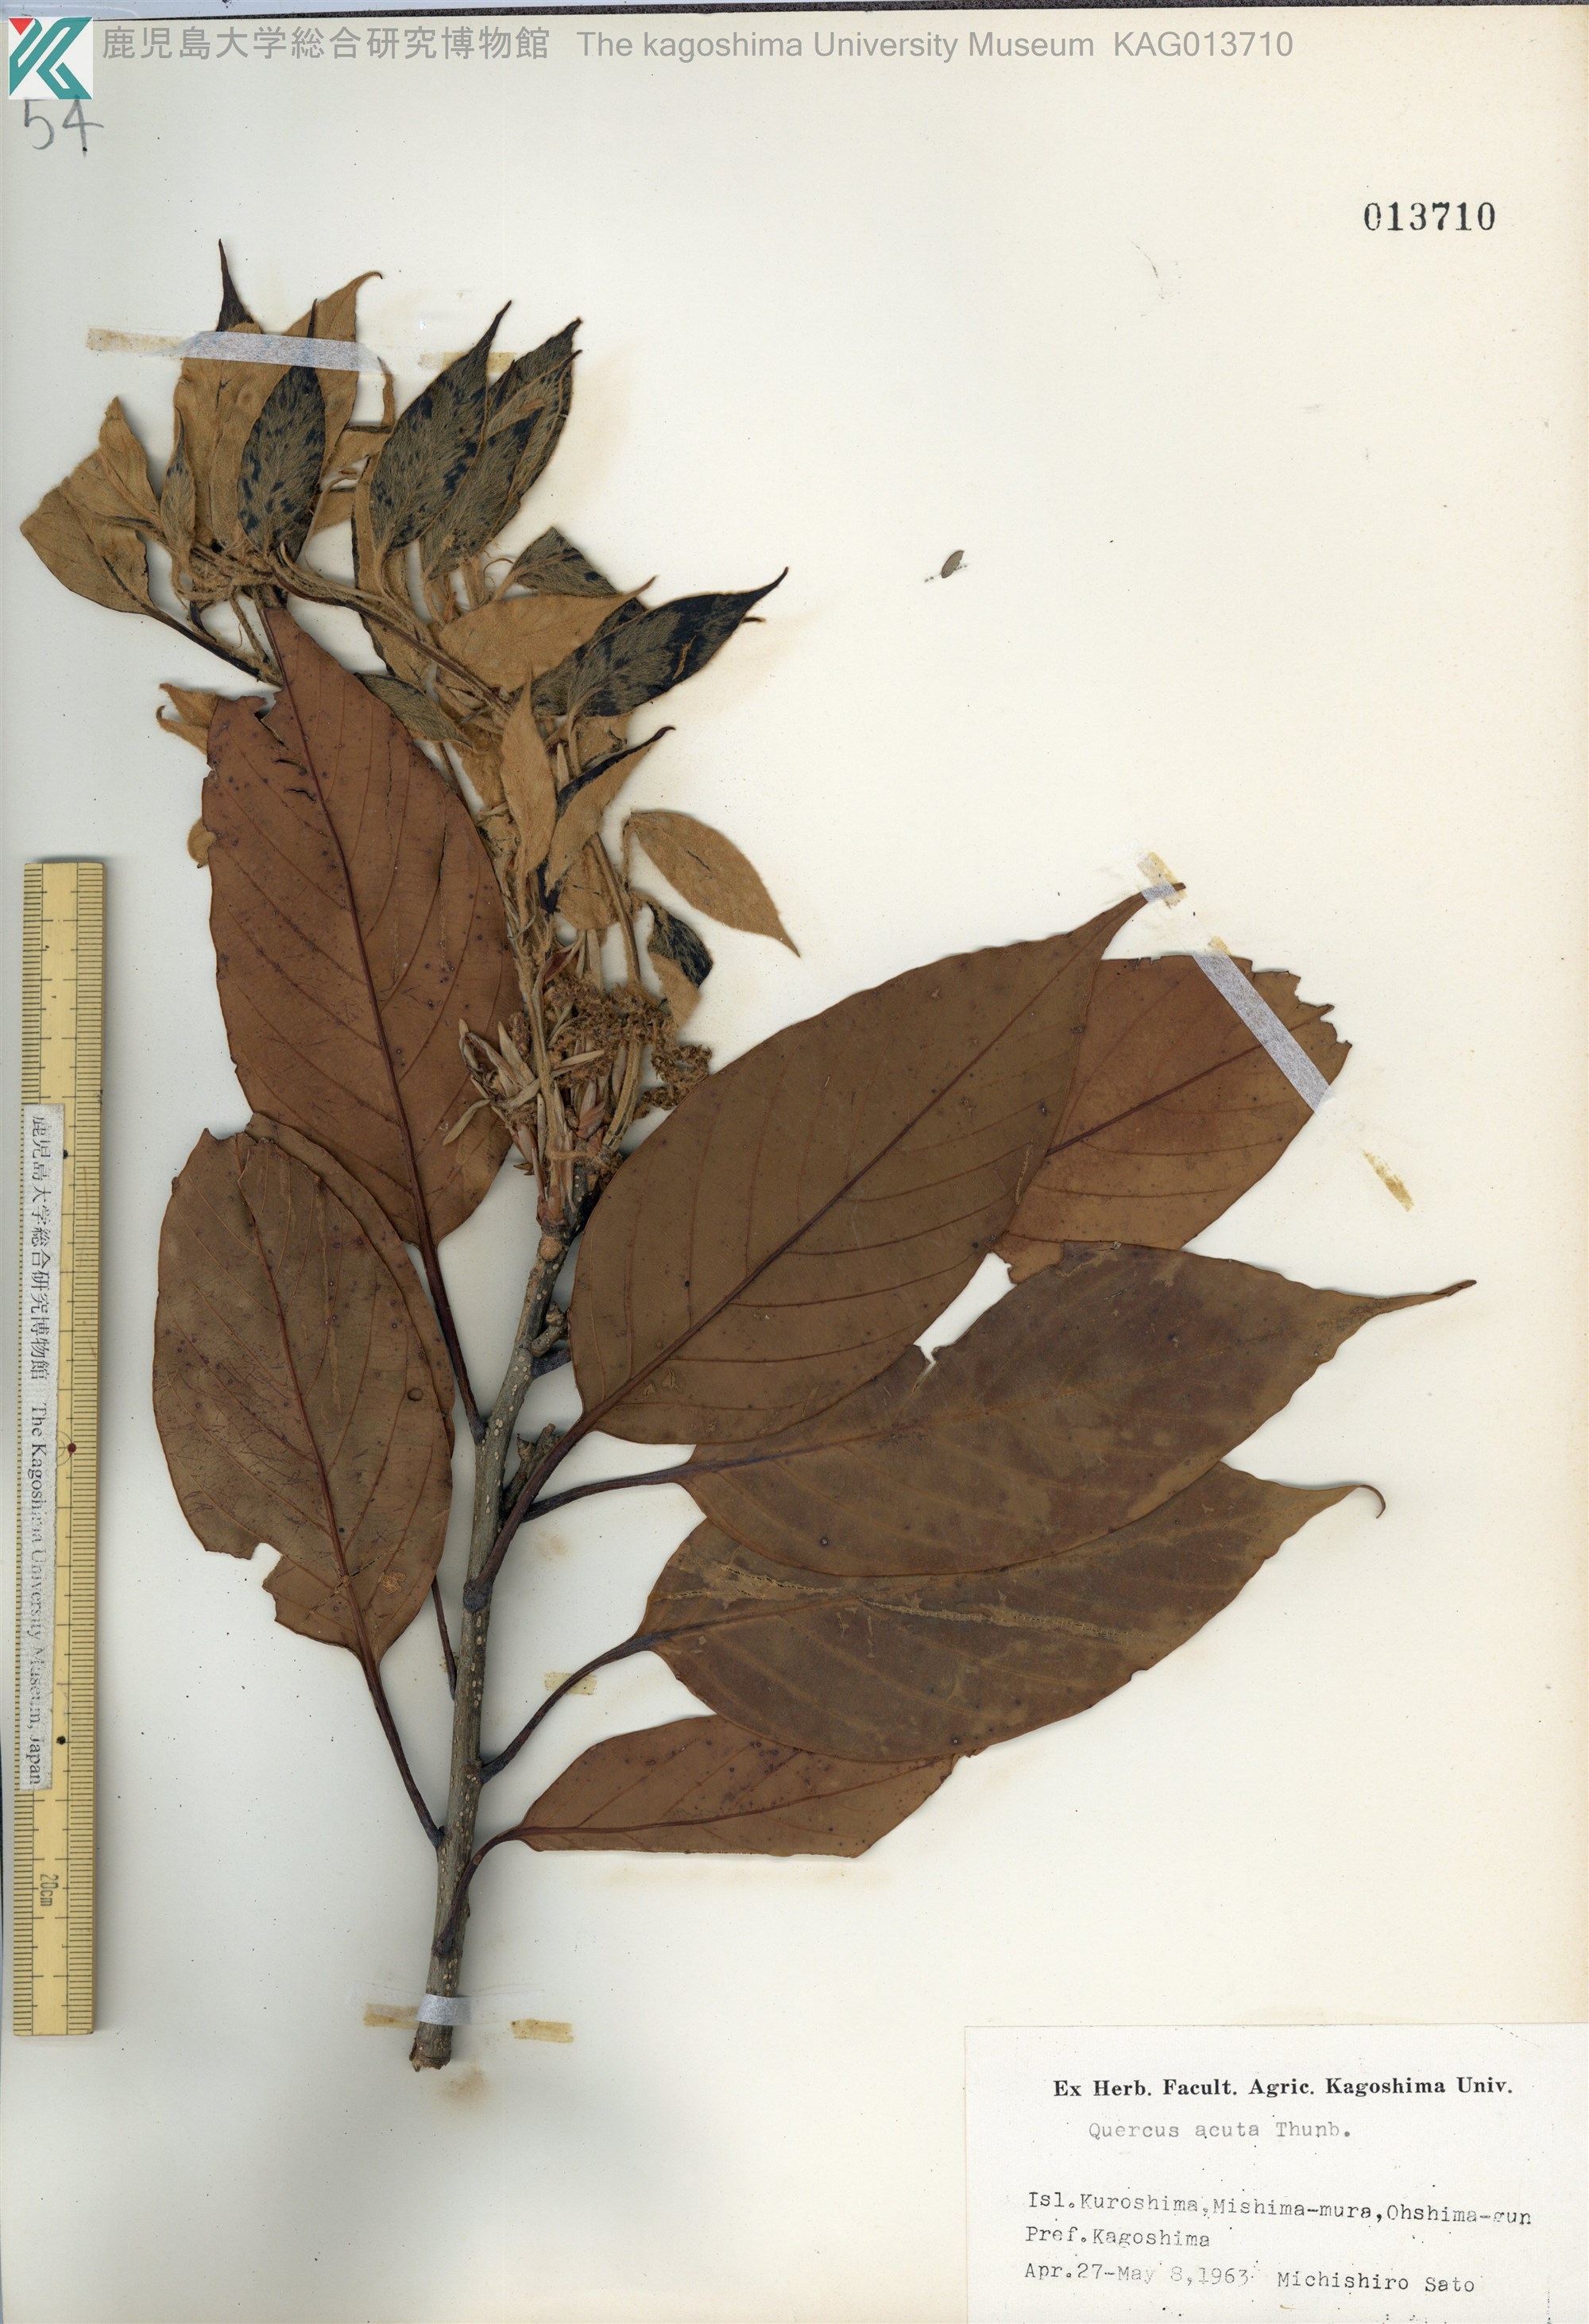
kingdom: Plantae
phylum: Tracheophyta
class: Magnoliopsida
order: Fagales
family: Fagaceae
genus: Quercus
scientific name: Quercus acuta
